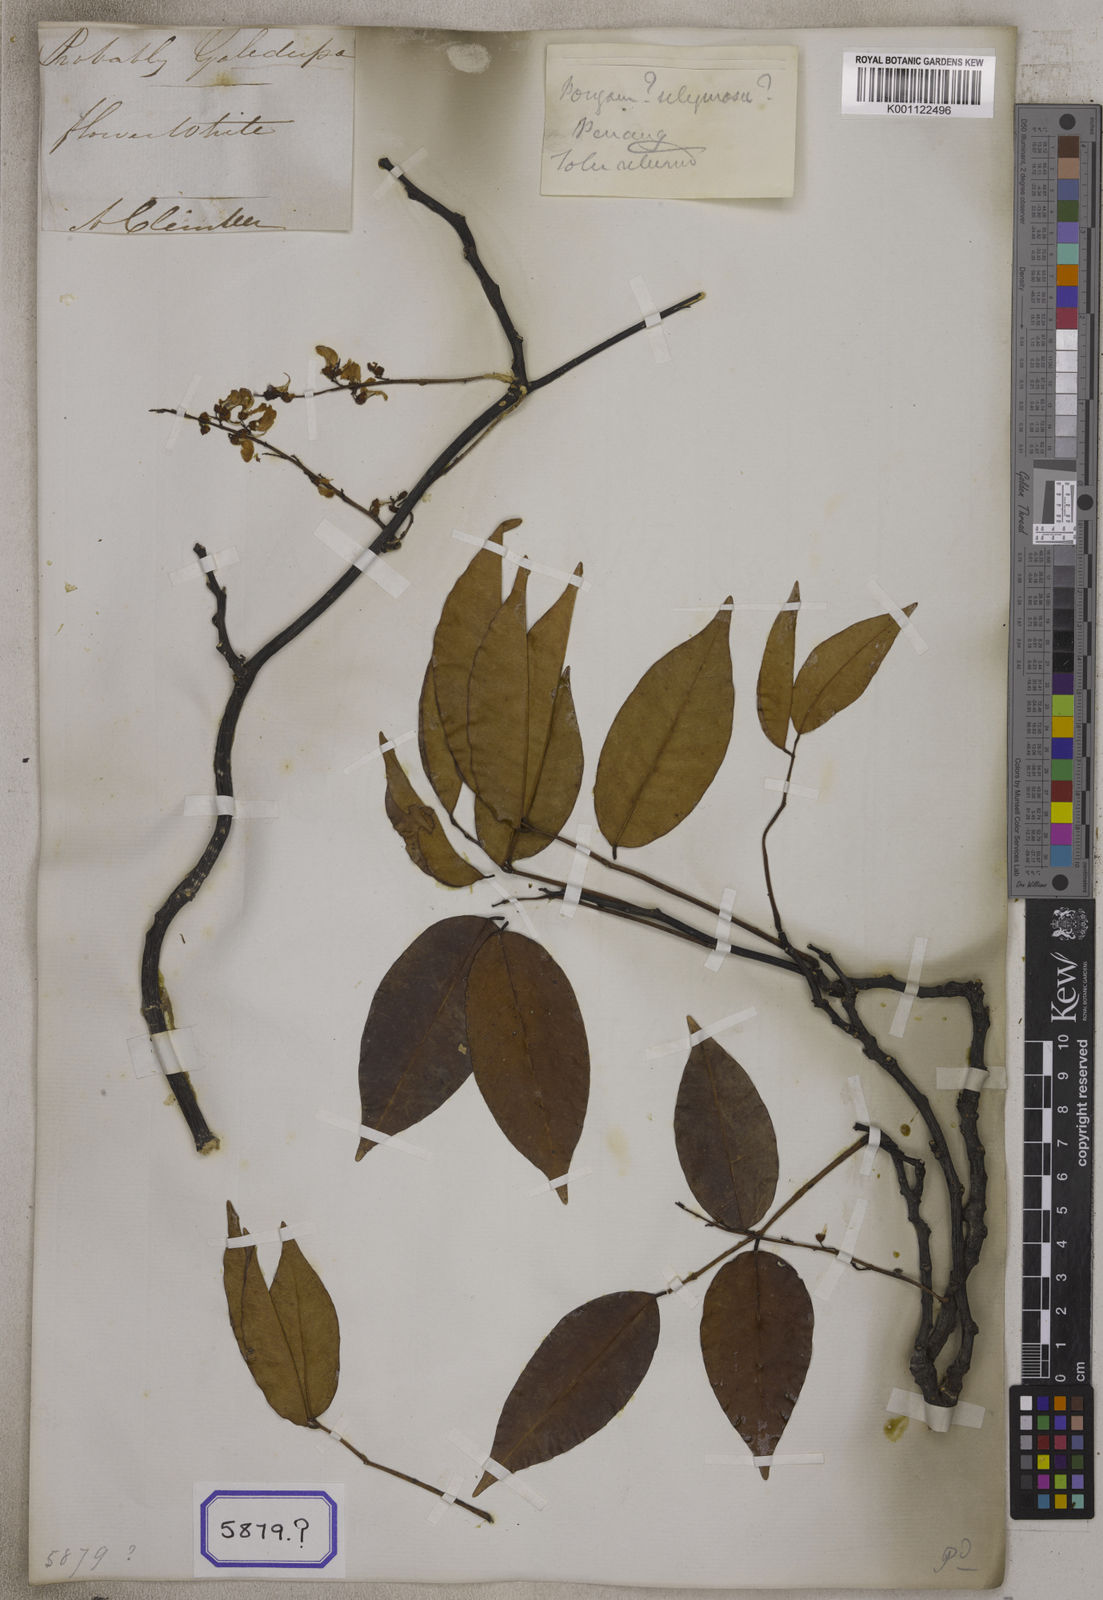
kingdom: Plantae
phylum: Tracheophyta
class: Magnoliopsida
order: Fabales
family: Fabaceae
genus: Derris
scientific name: Derris trifoliata
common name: Three-leaf derris
